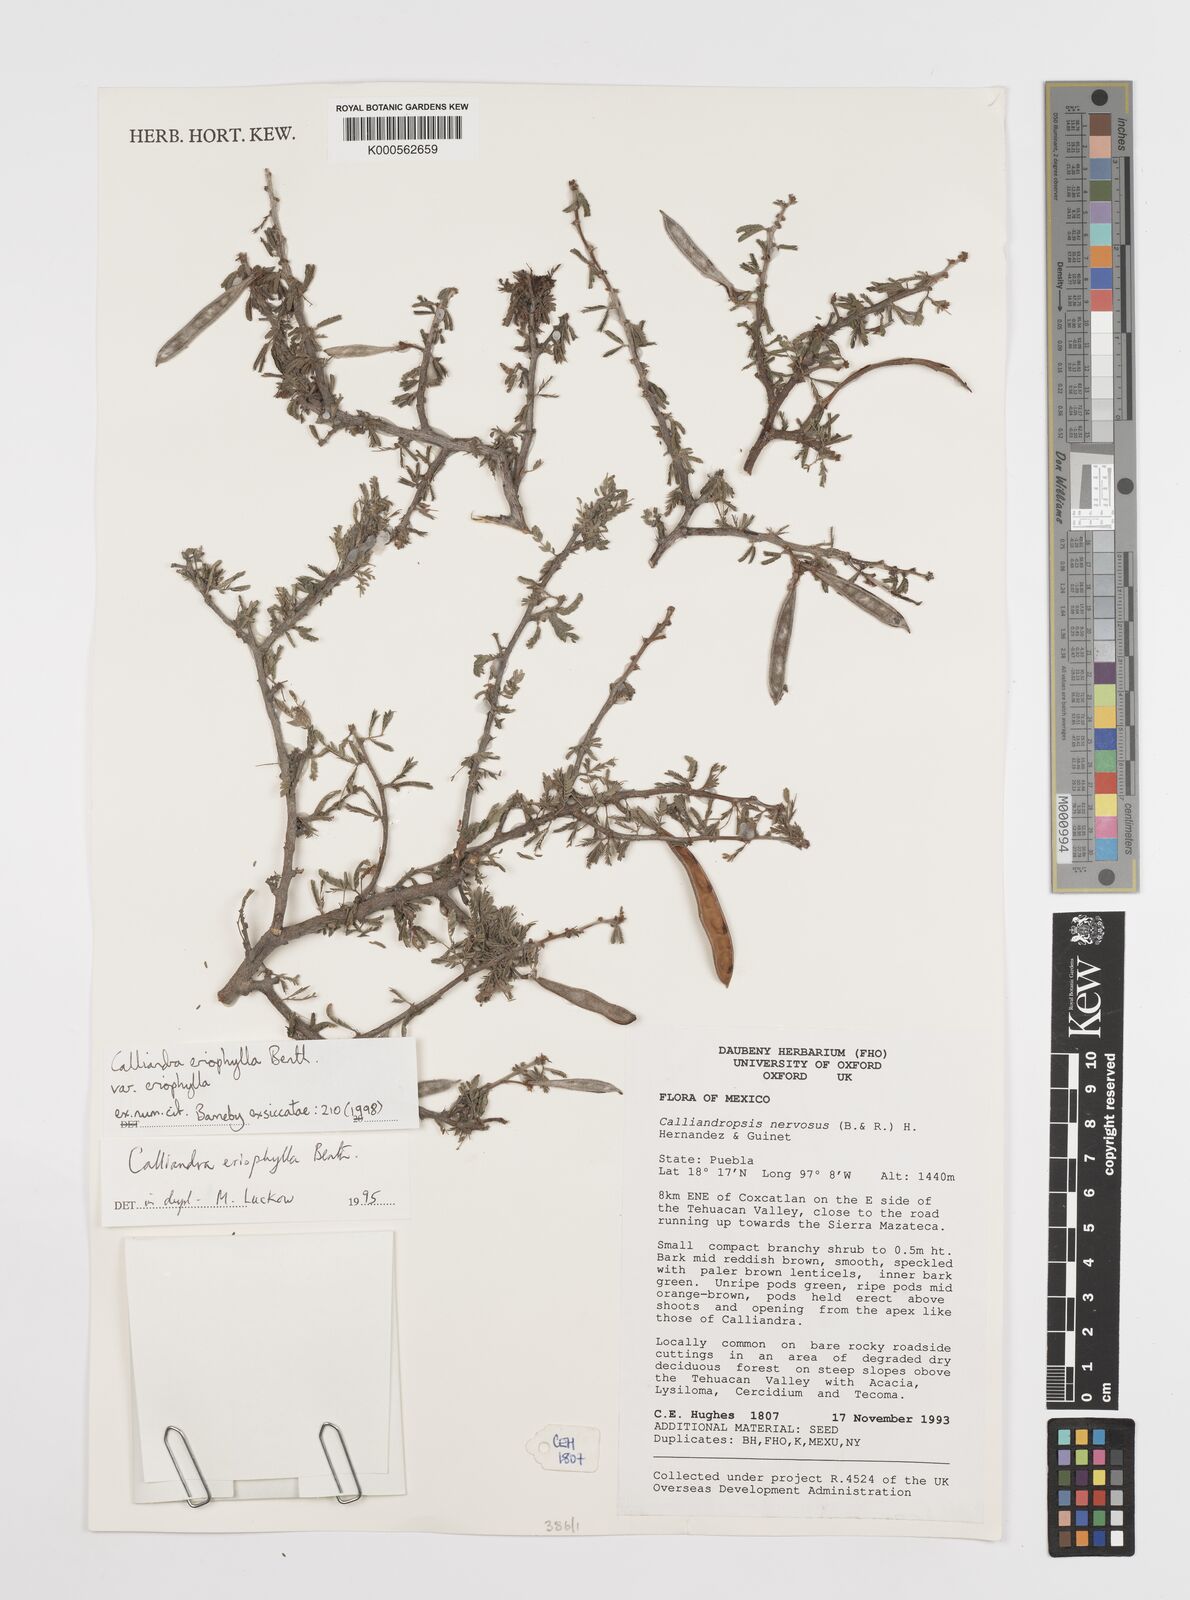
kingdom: Plantae
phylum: Tracheophyta
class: Magnoliopsida
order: Fabales
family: Fabaceae
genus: Calliandra
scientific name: Calliandra eriophylla
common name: Fairy-duster
